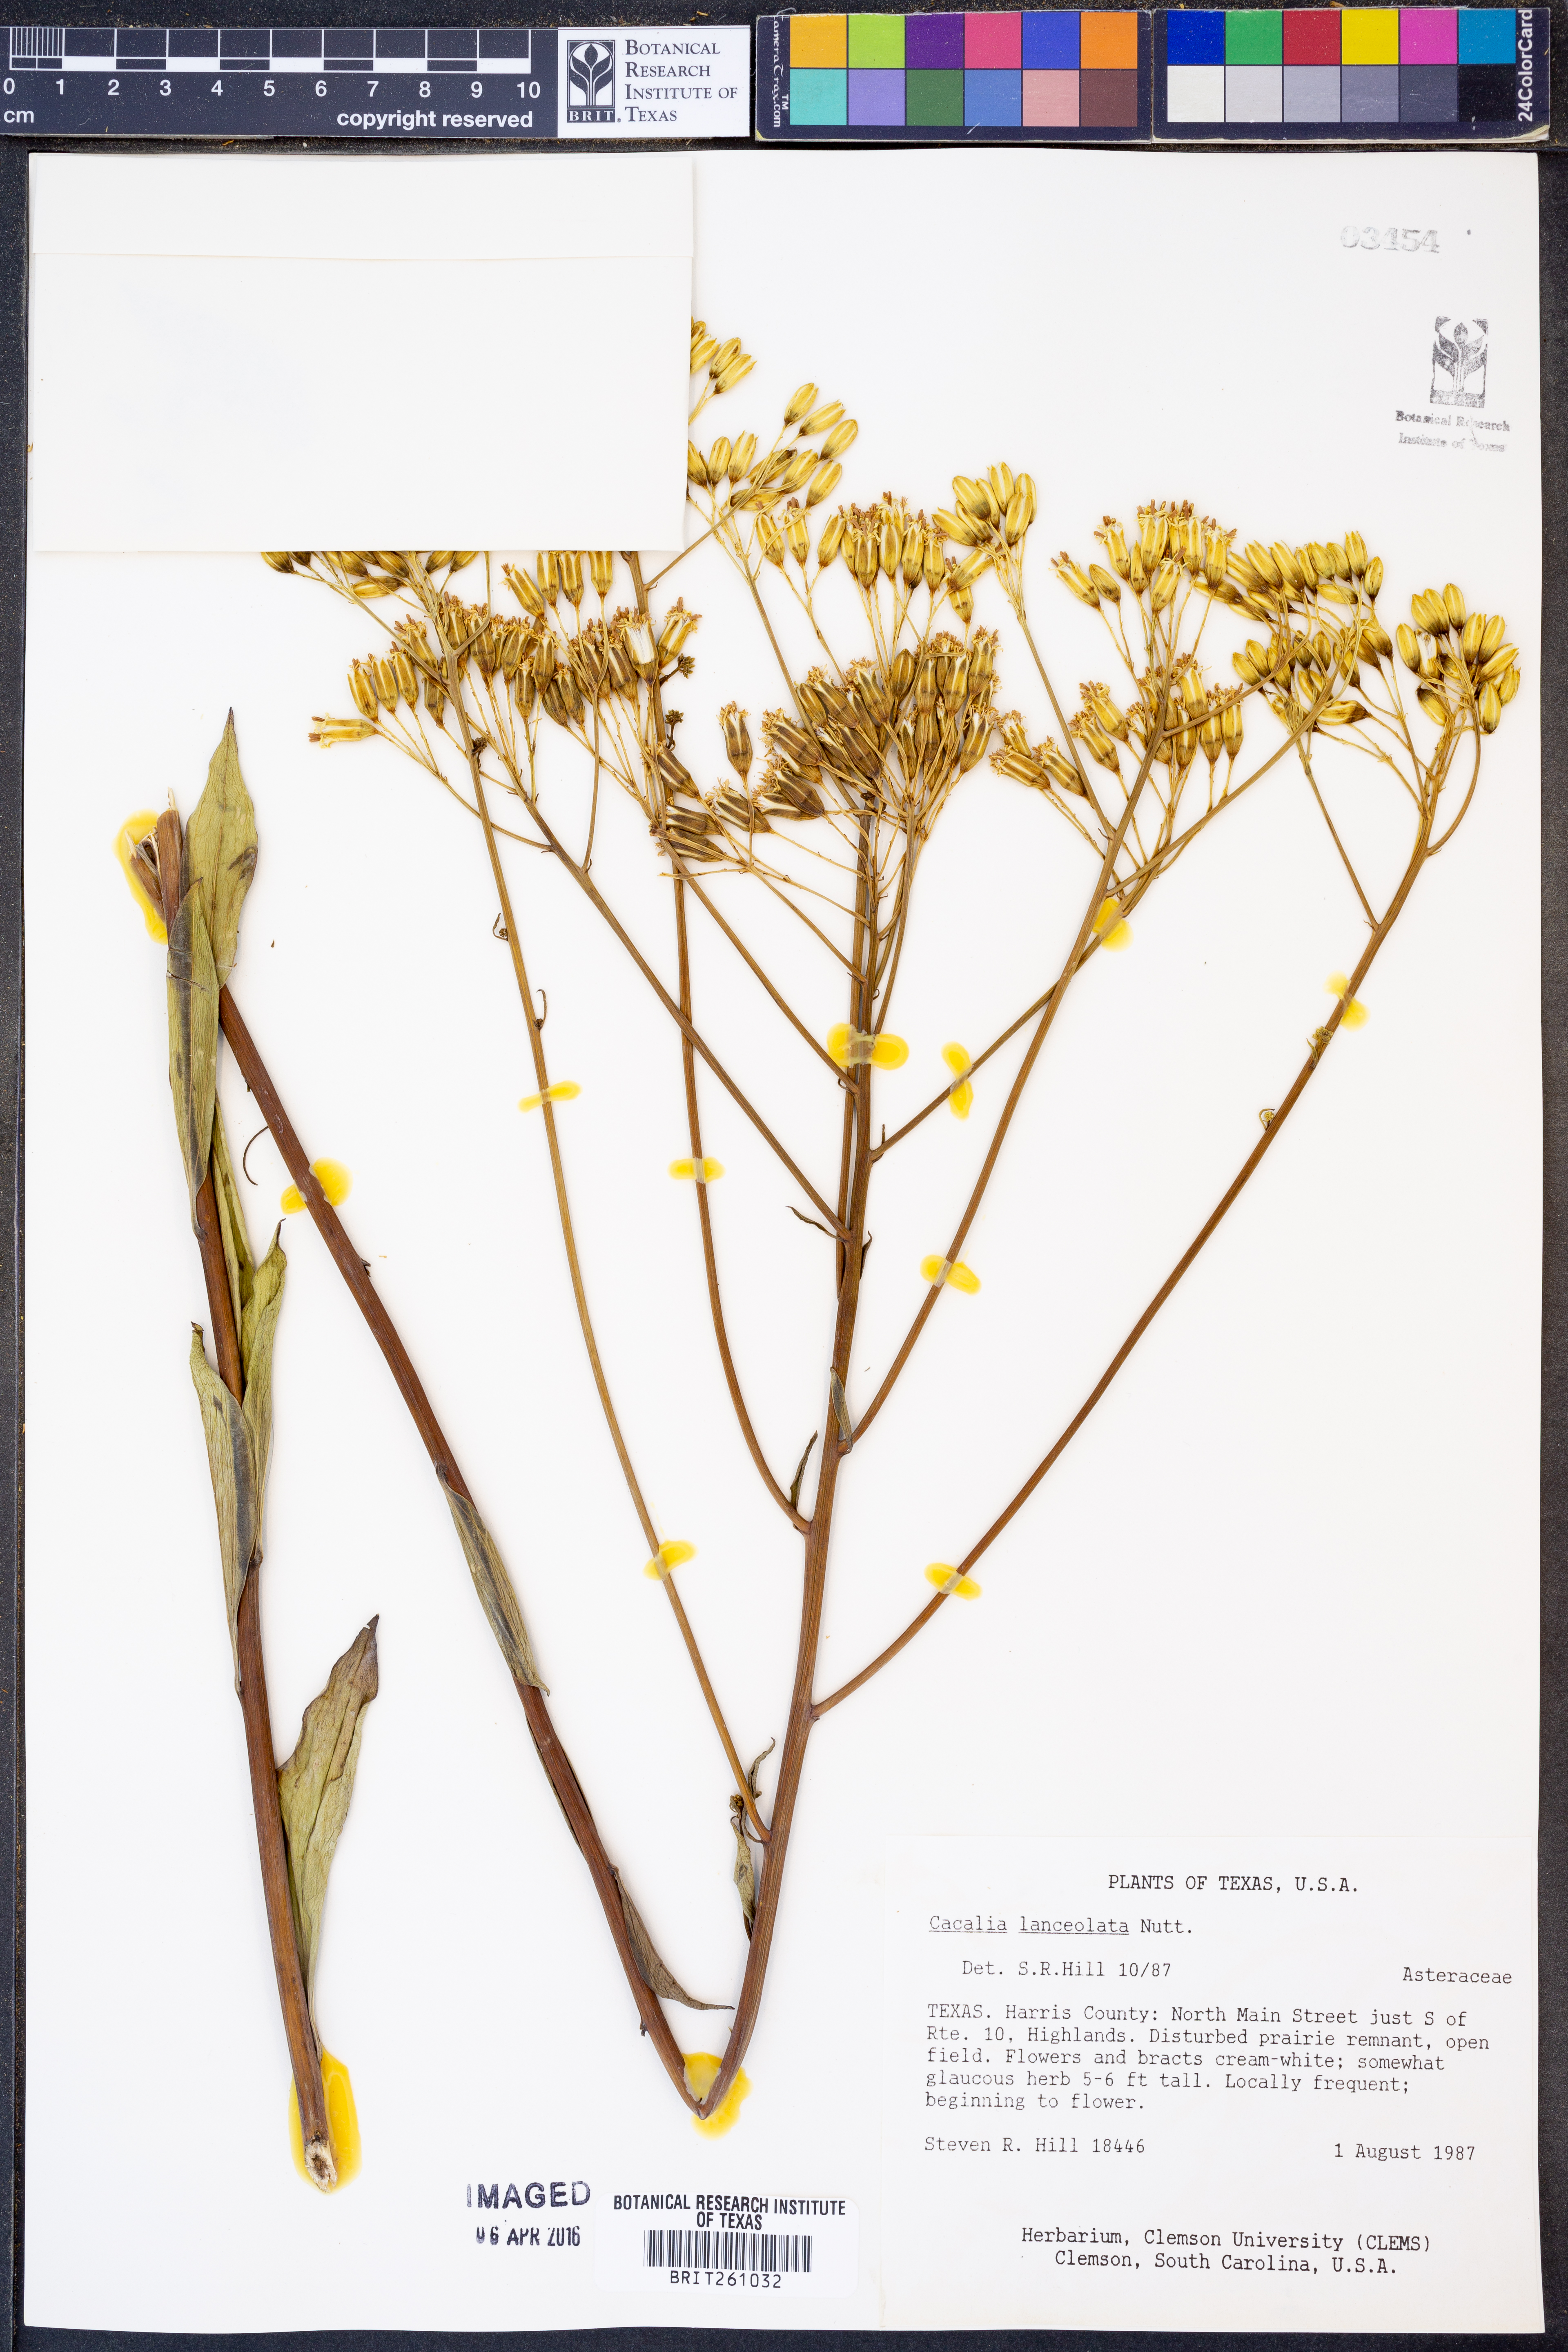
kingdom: Plantae
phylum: Tracheophyta
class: Magnoliopsida
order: Asterales
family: Asteraceae
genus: Arnoglossum
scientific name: Arnoglossum ovatum
